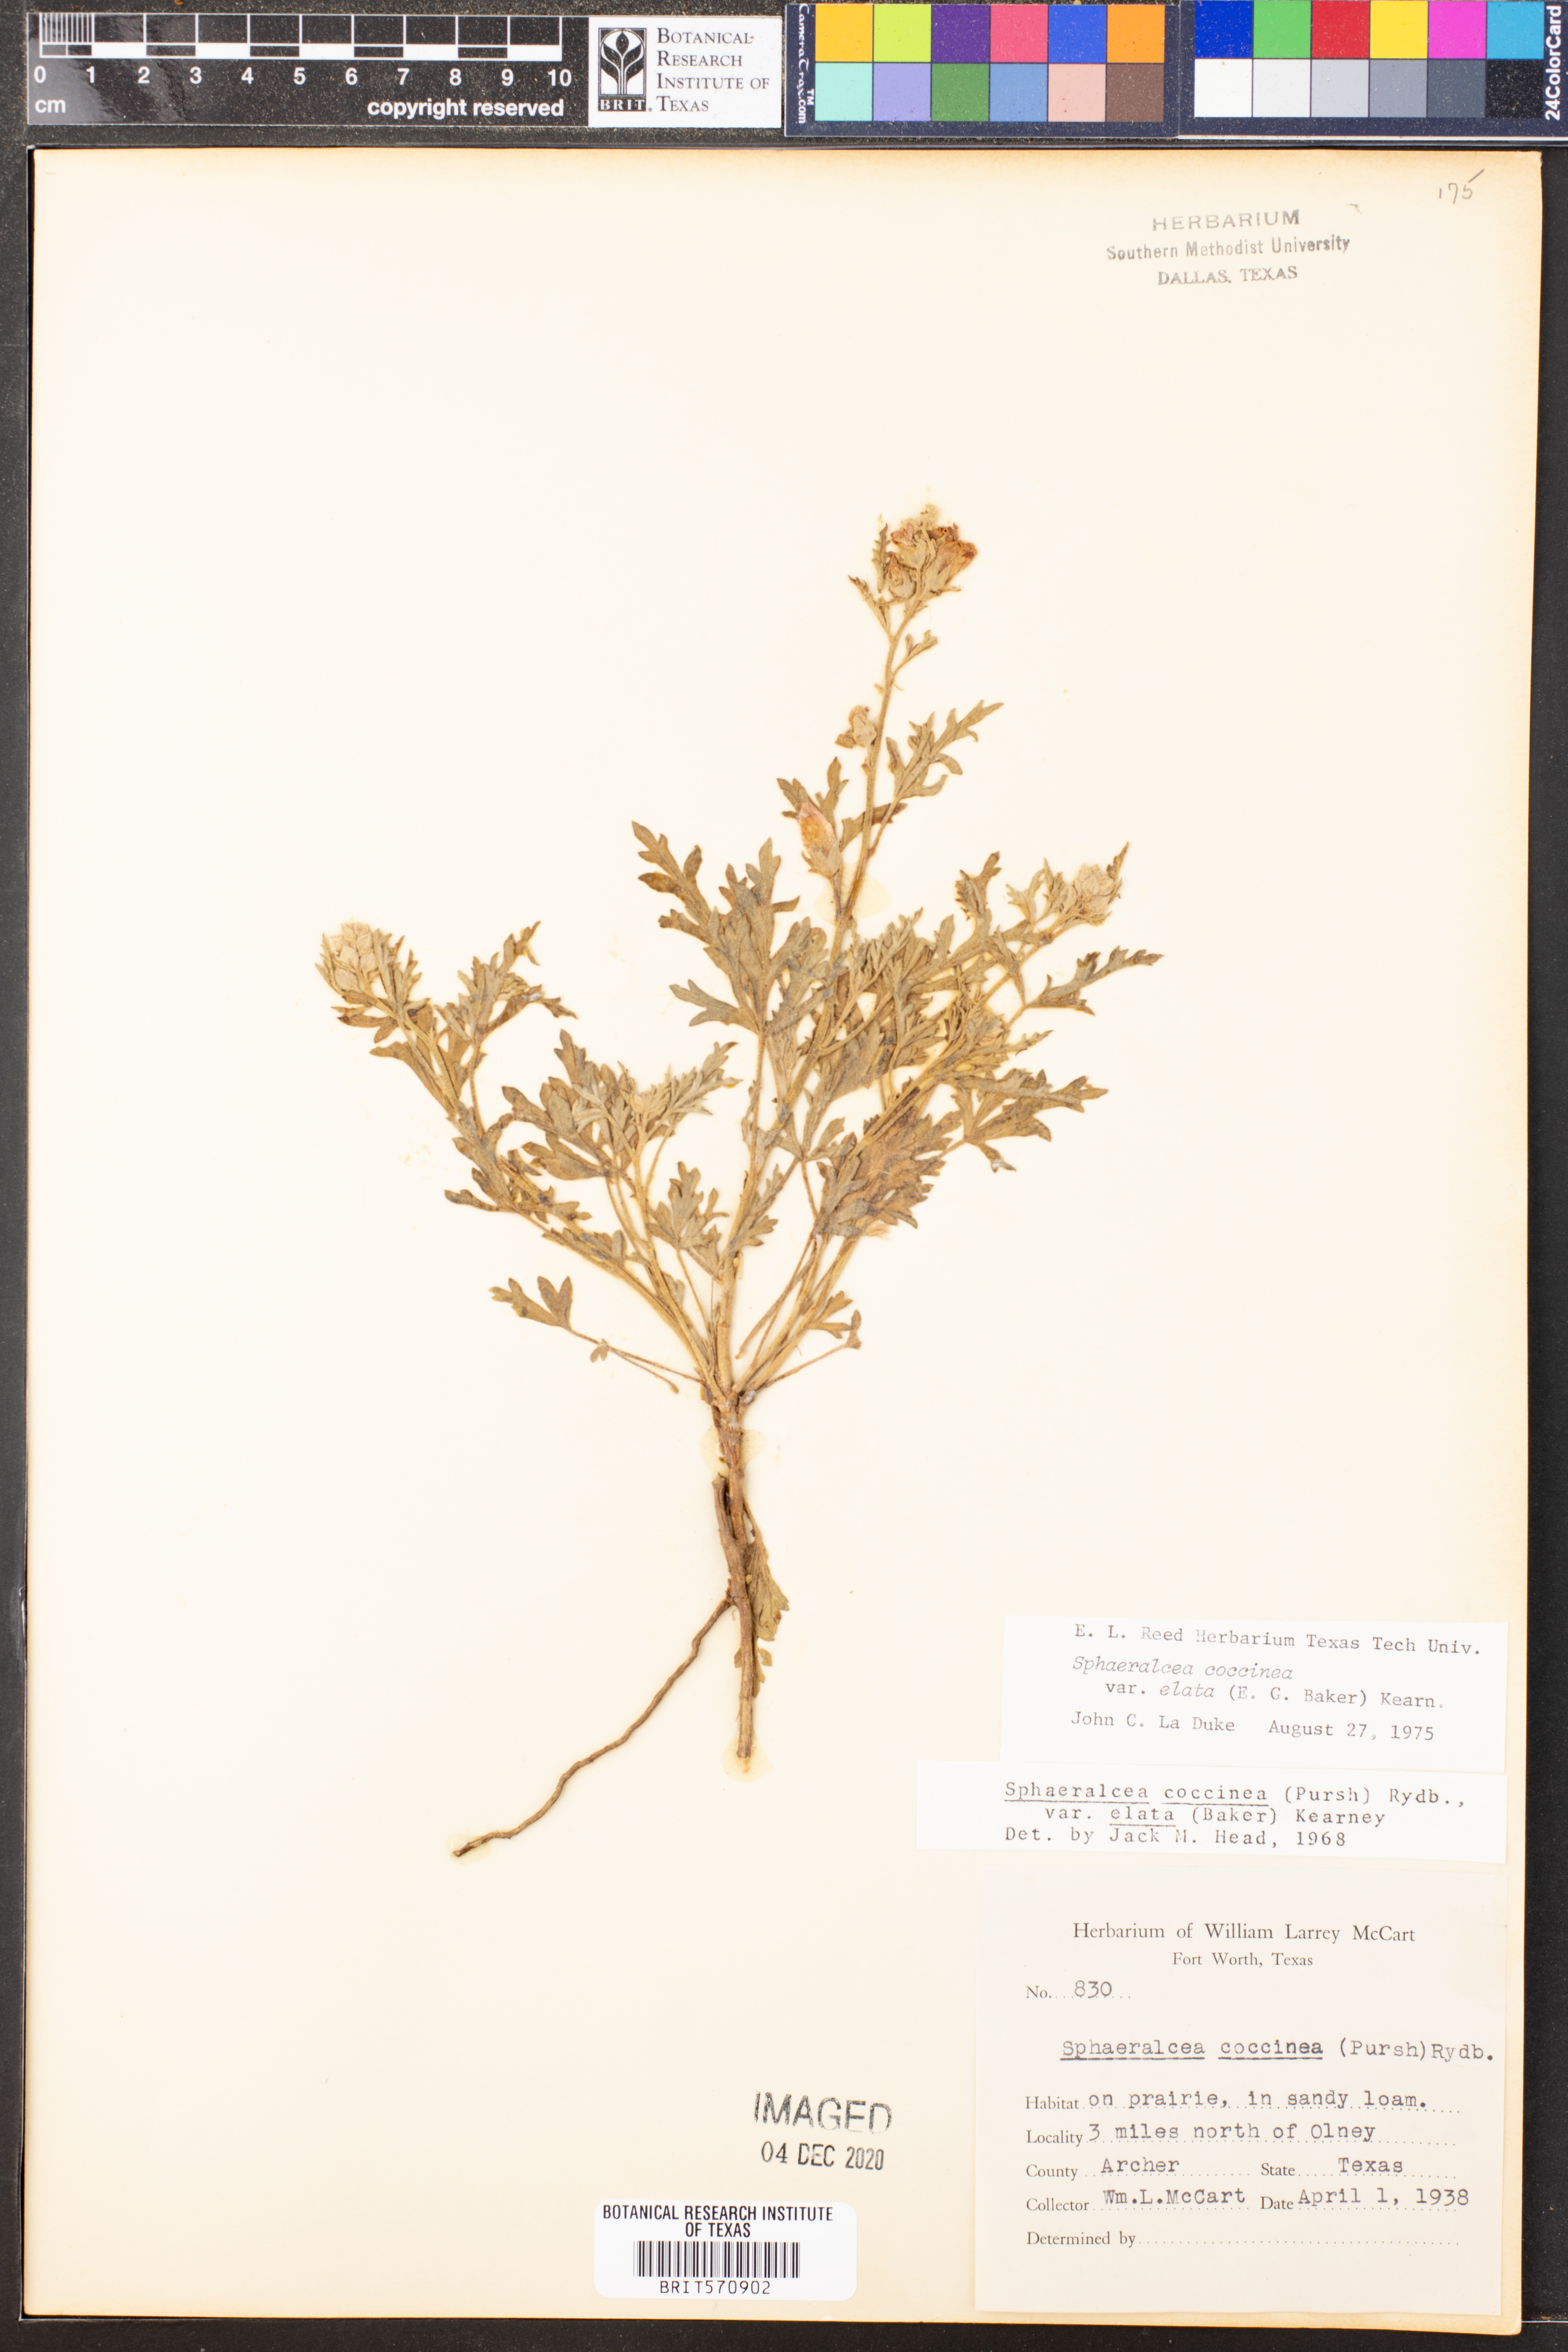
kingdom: Plantae
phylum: Tracheophyta
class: Magnoliopsida
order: Malvales
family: Malvaceae
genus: Sphaeralcea
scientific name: Sphaeralcea coccinea
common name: Moss-rose
